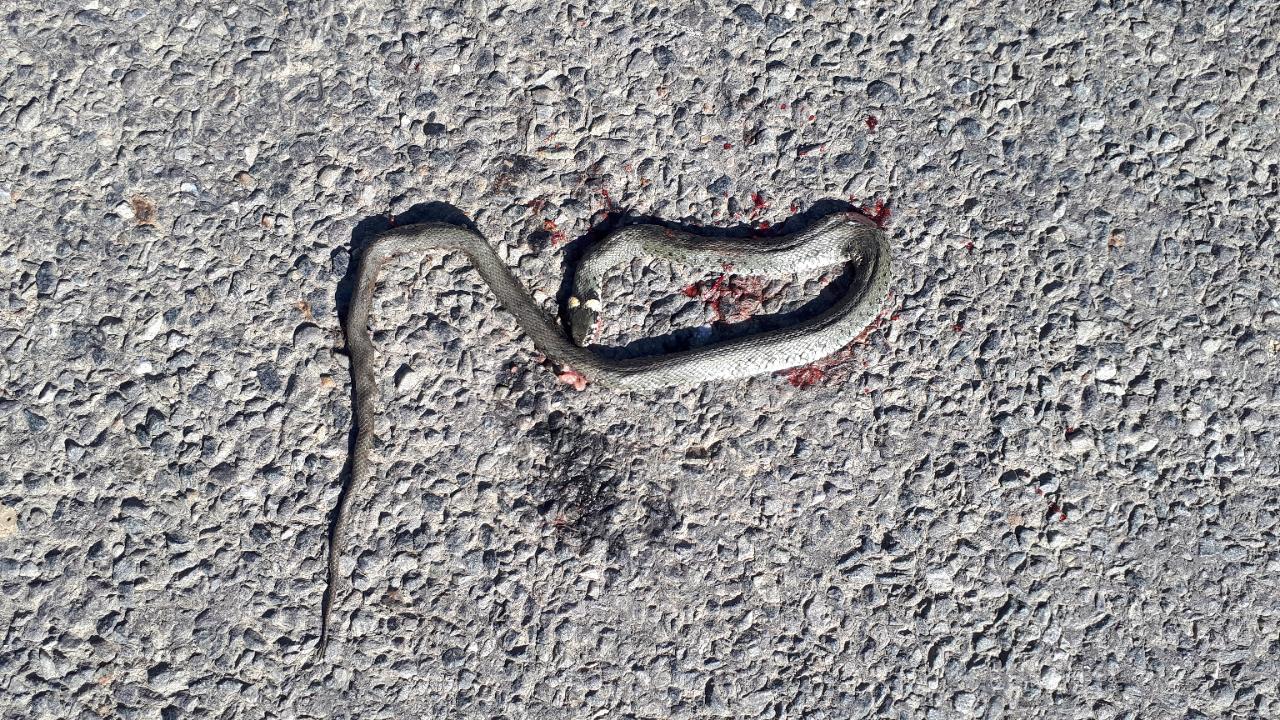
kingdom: Animalia
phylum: Chordata
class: Squamata
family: Colubridae
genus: Natrix
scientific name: Natrix natrix
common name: Grass snake
